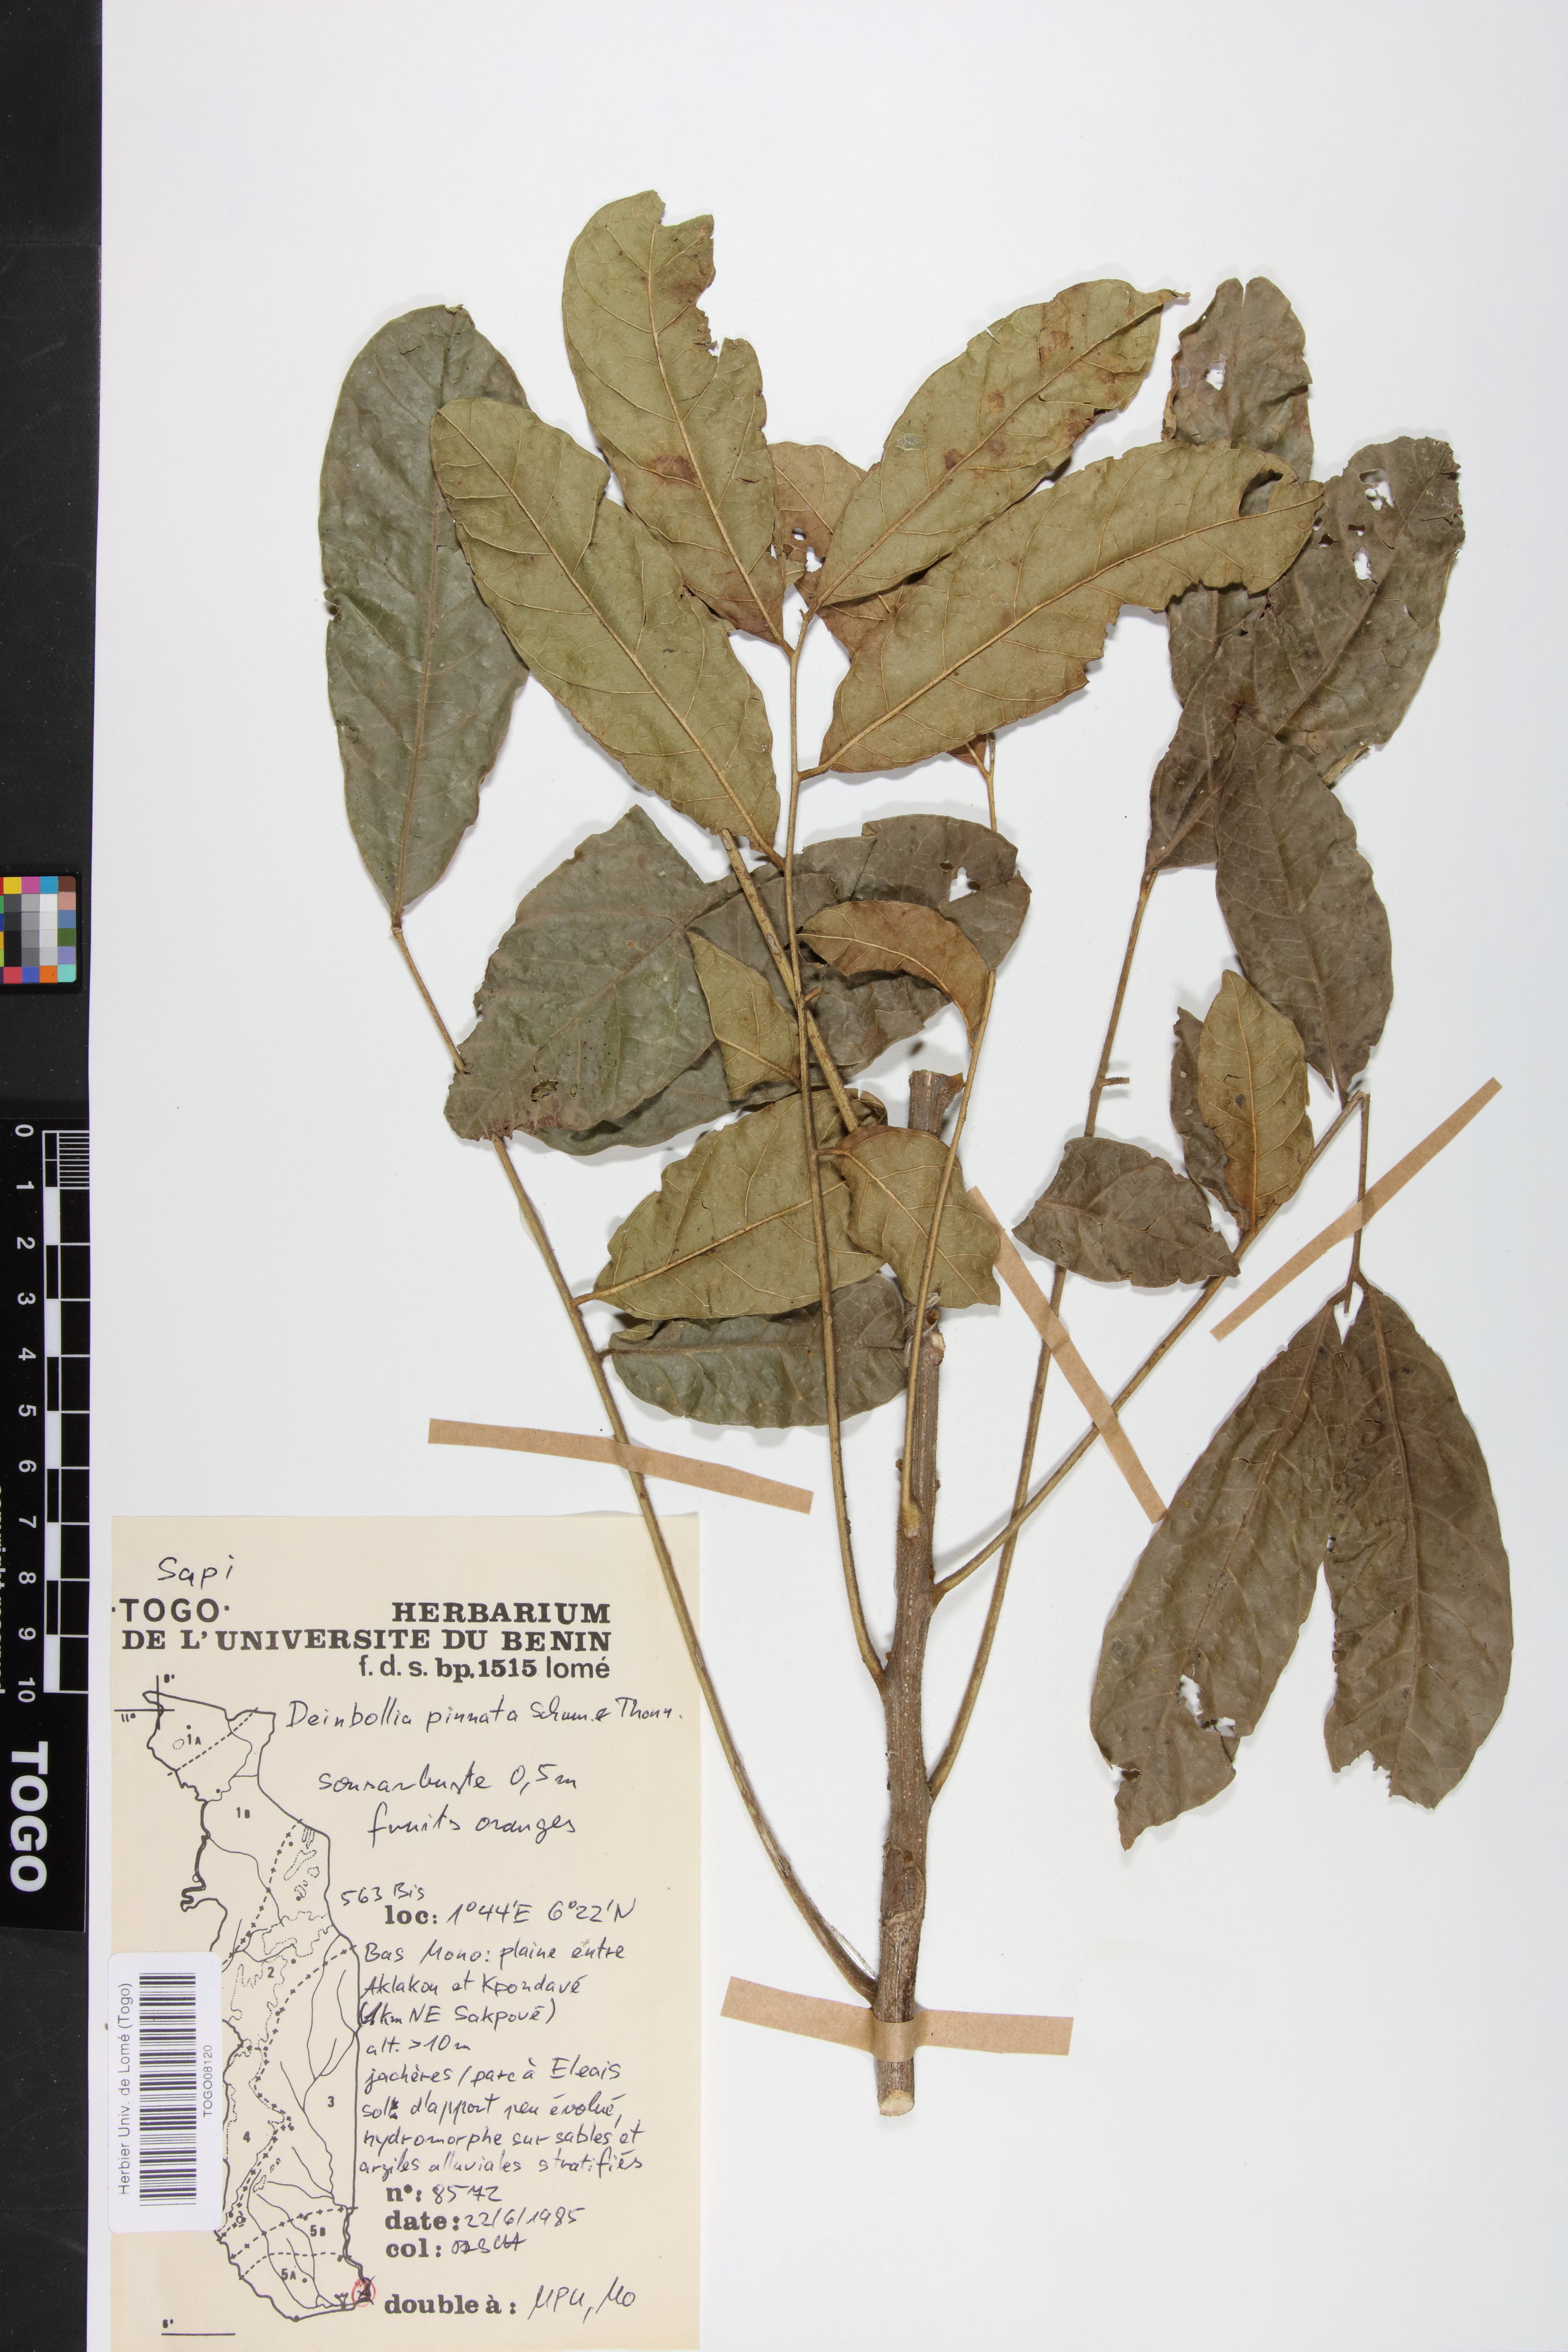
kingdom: Plantae
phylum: Tracheophyta
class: Magnoliopsida
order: Sapindales
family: Sapindaceae
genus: Deinbollia
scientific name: Deinbollia pinnata
